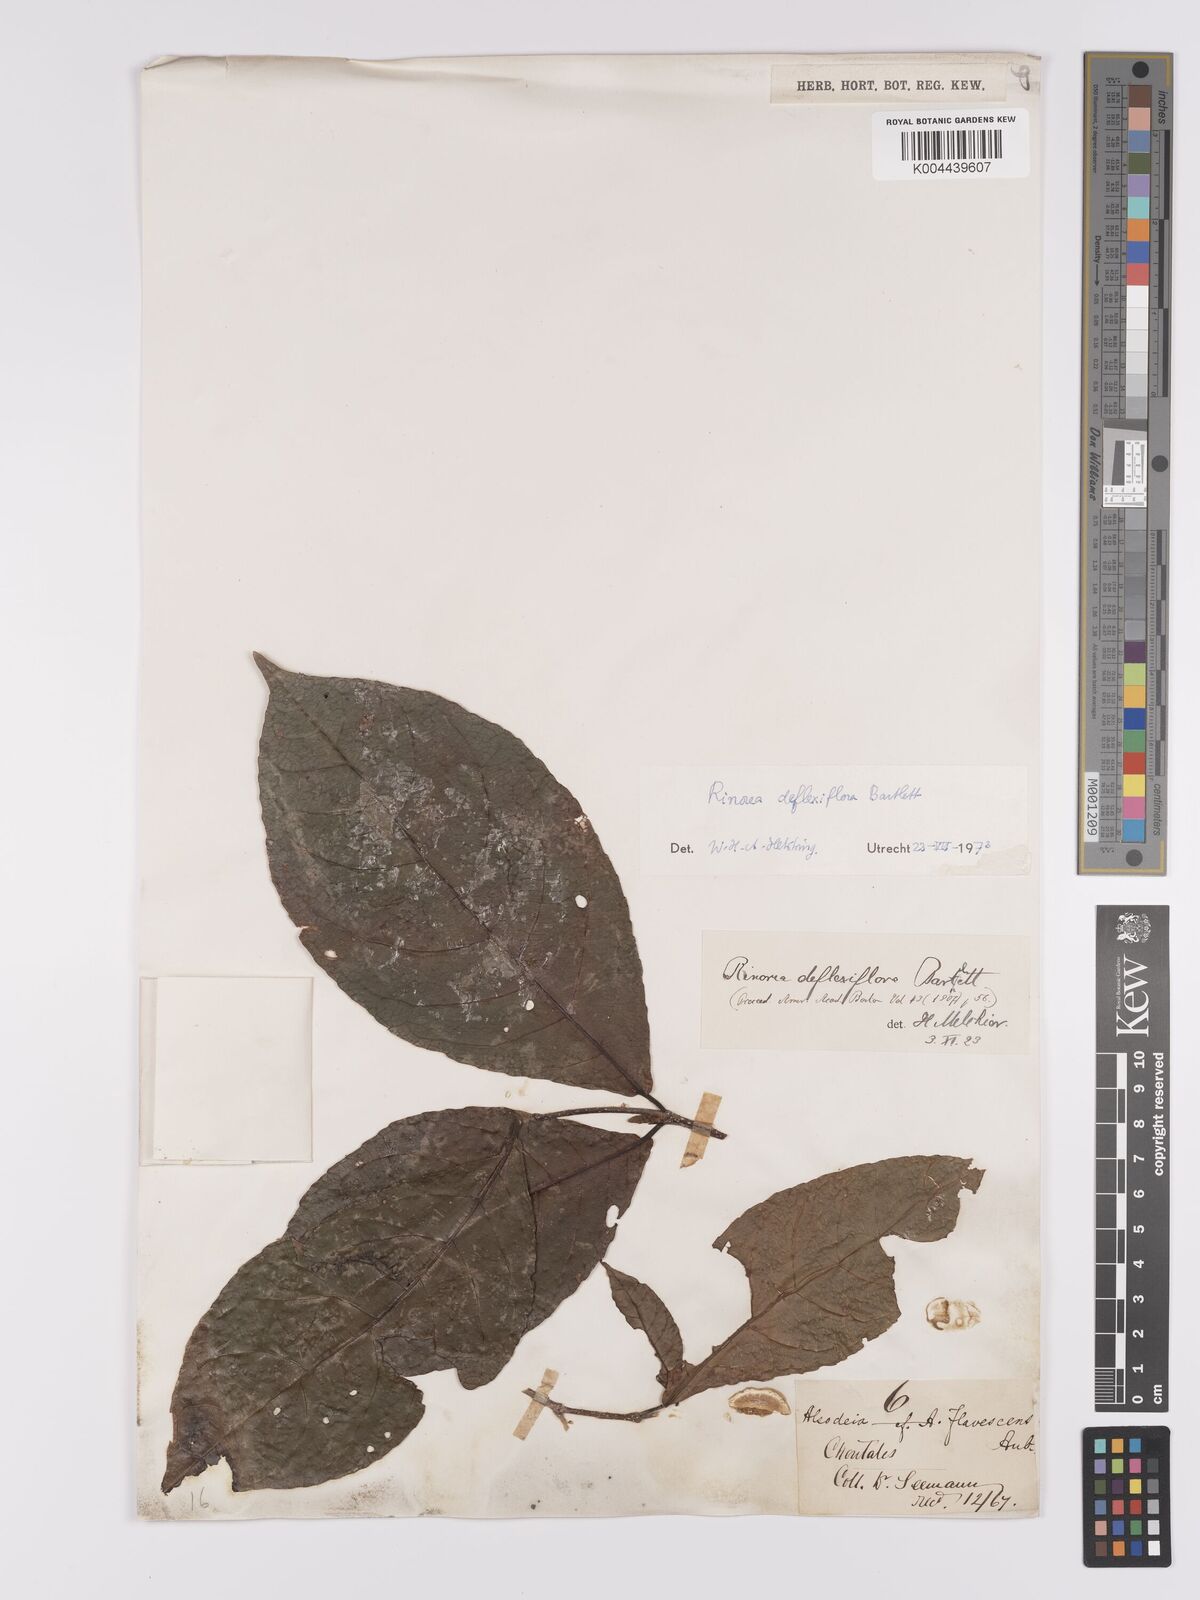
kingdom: Plantae
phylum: Tracheophyta
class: Magnoliopsida
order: Malpighiales
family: Violaceae
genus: Rinorea
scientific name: Rinorea deflexiflora
